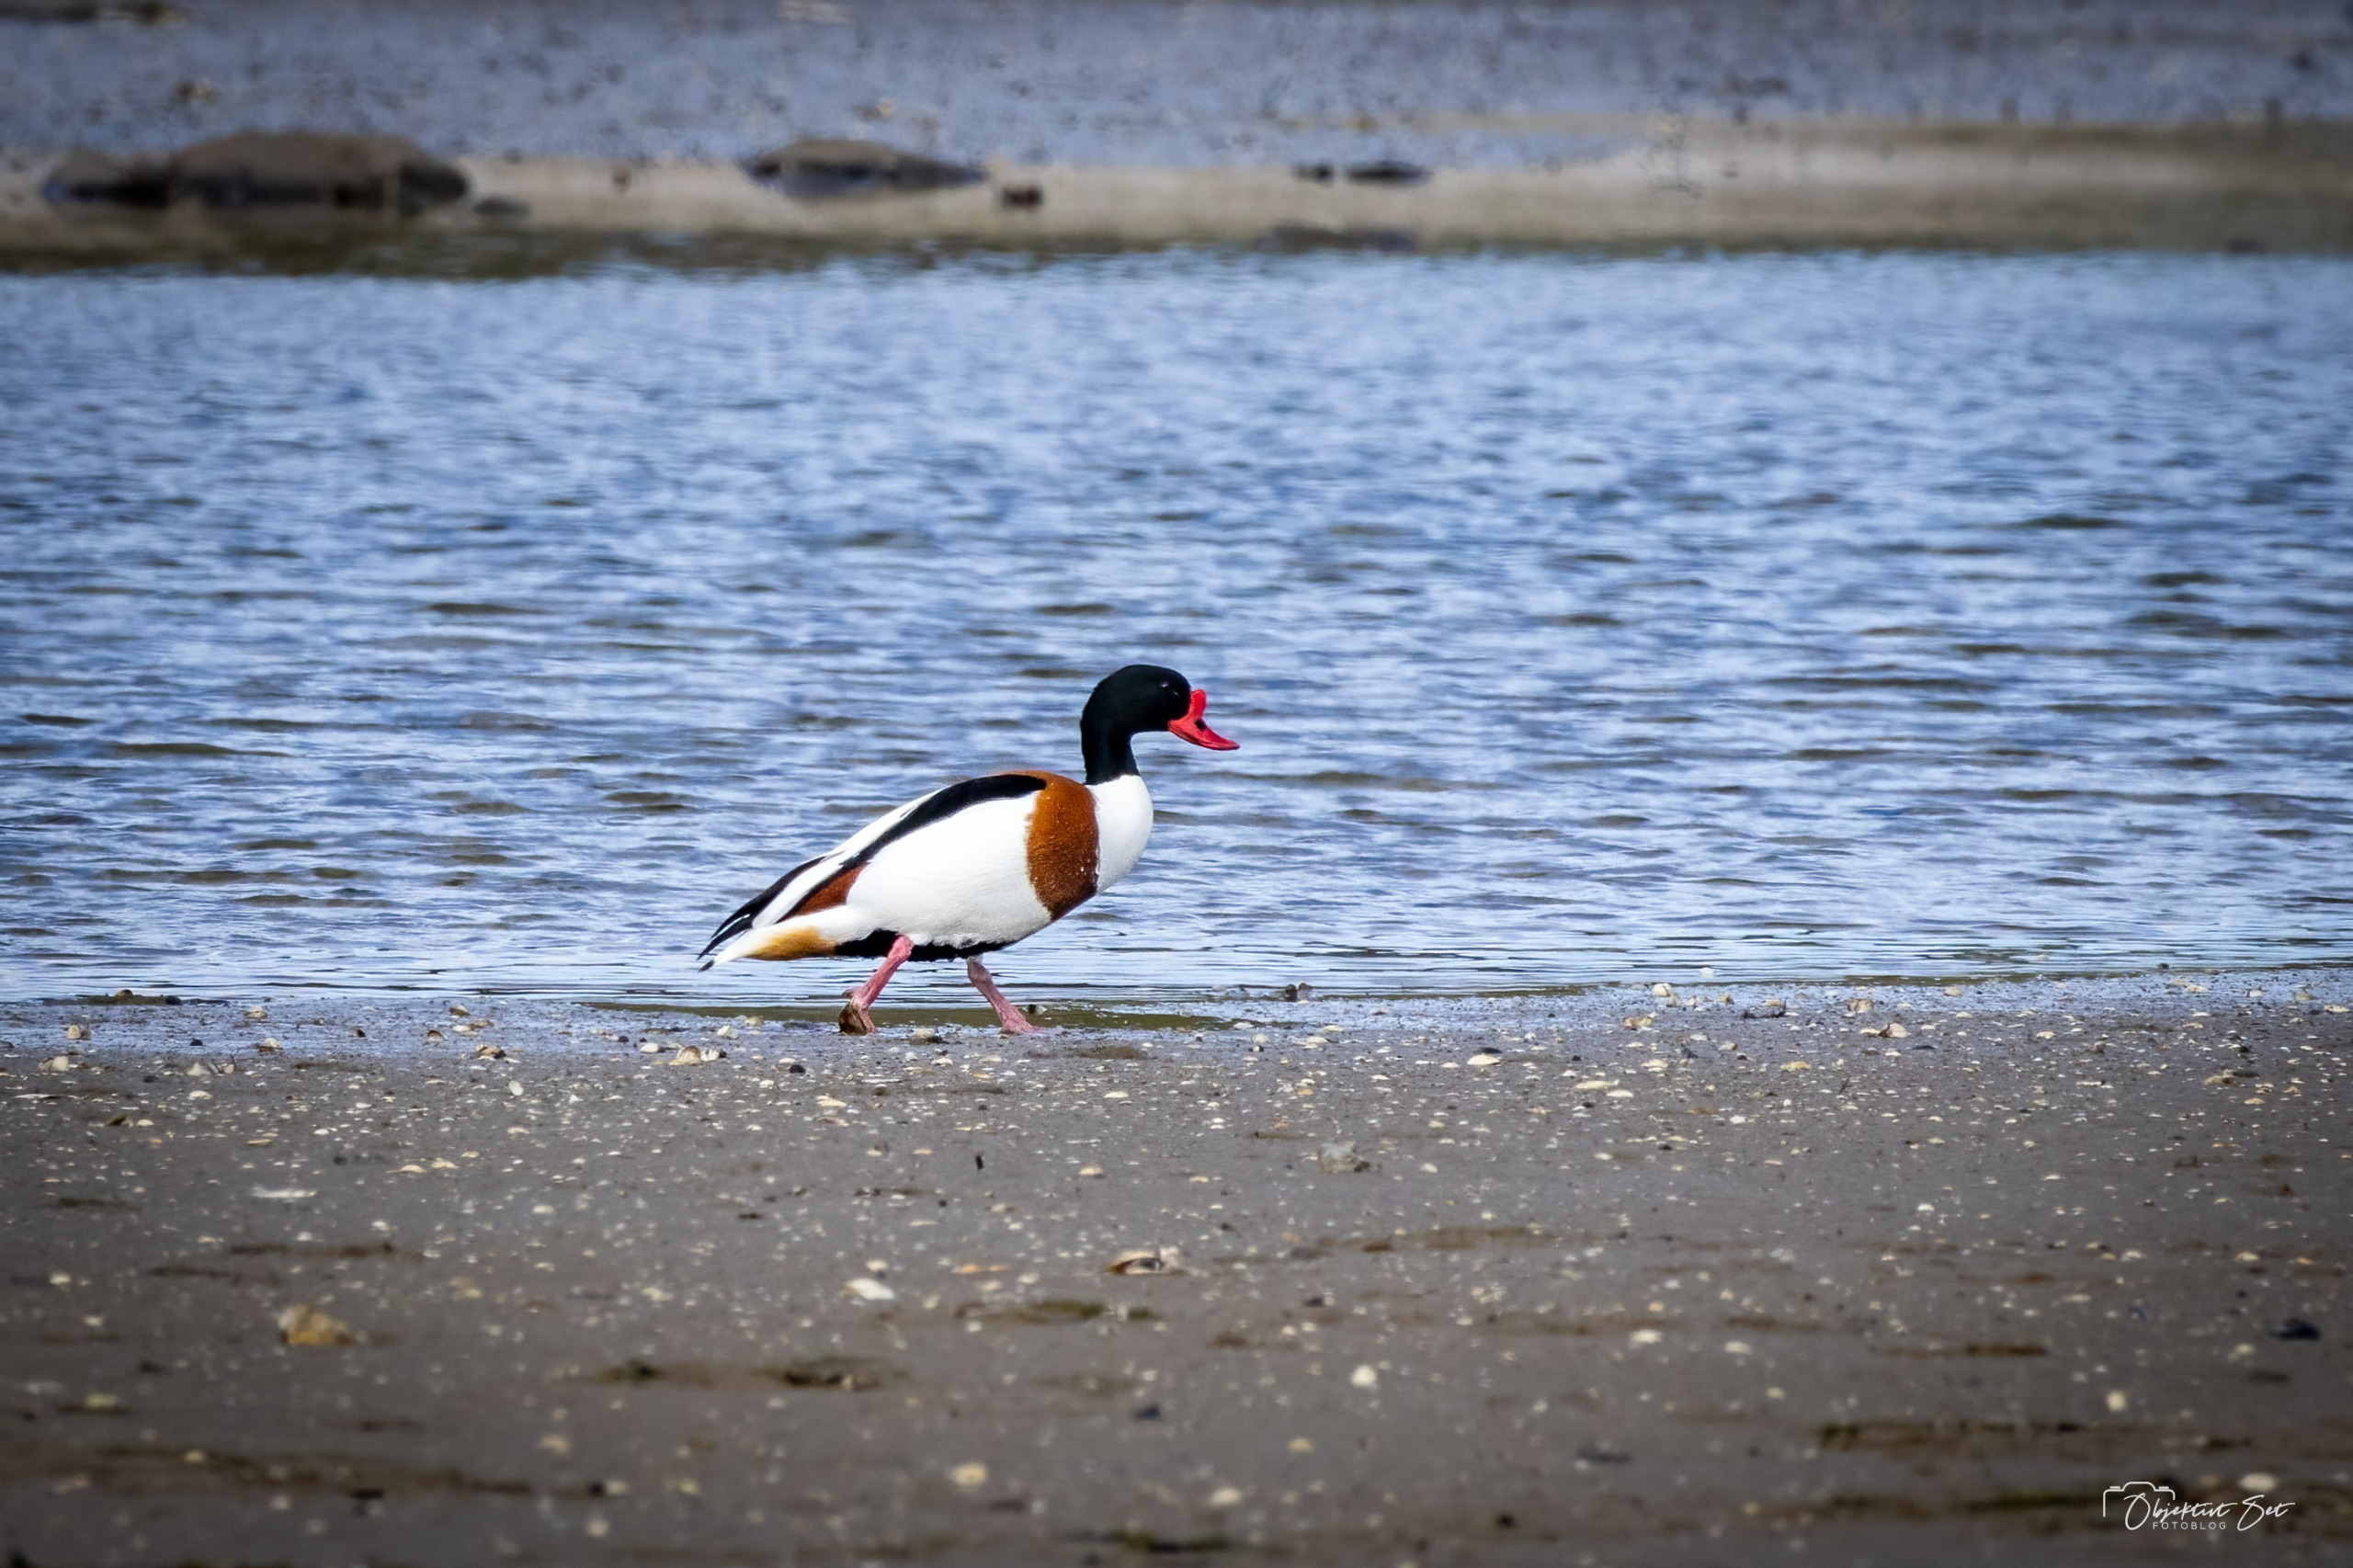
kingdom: Animalia
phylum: Chordata
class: Aves
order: Anseriformes
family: Anatidae
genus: Tadorna
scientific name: Tadorna tadorna
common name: Gravand
